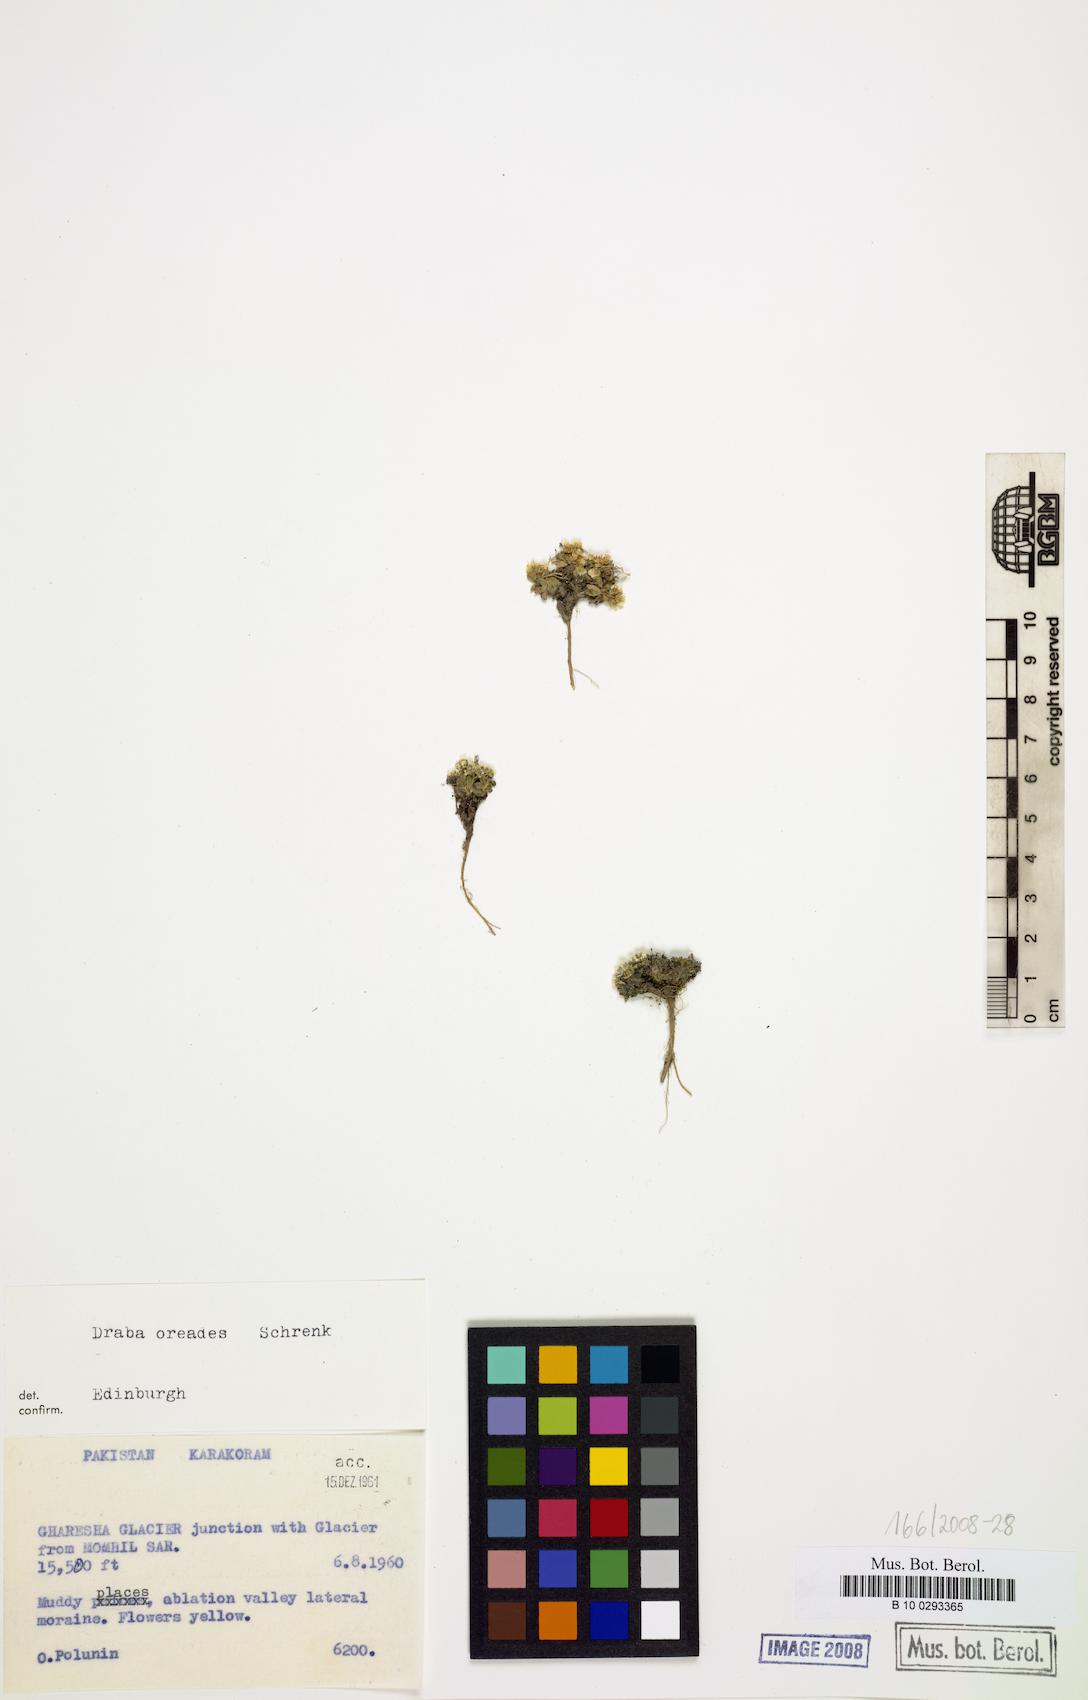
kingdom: Plantae
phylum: Tracheophyta
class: Magnoliopsida
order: Brassicales
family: Brassicaceae
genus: Draba
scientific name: Draba oreades
